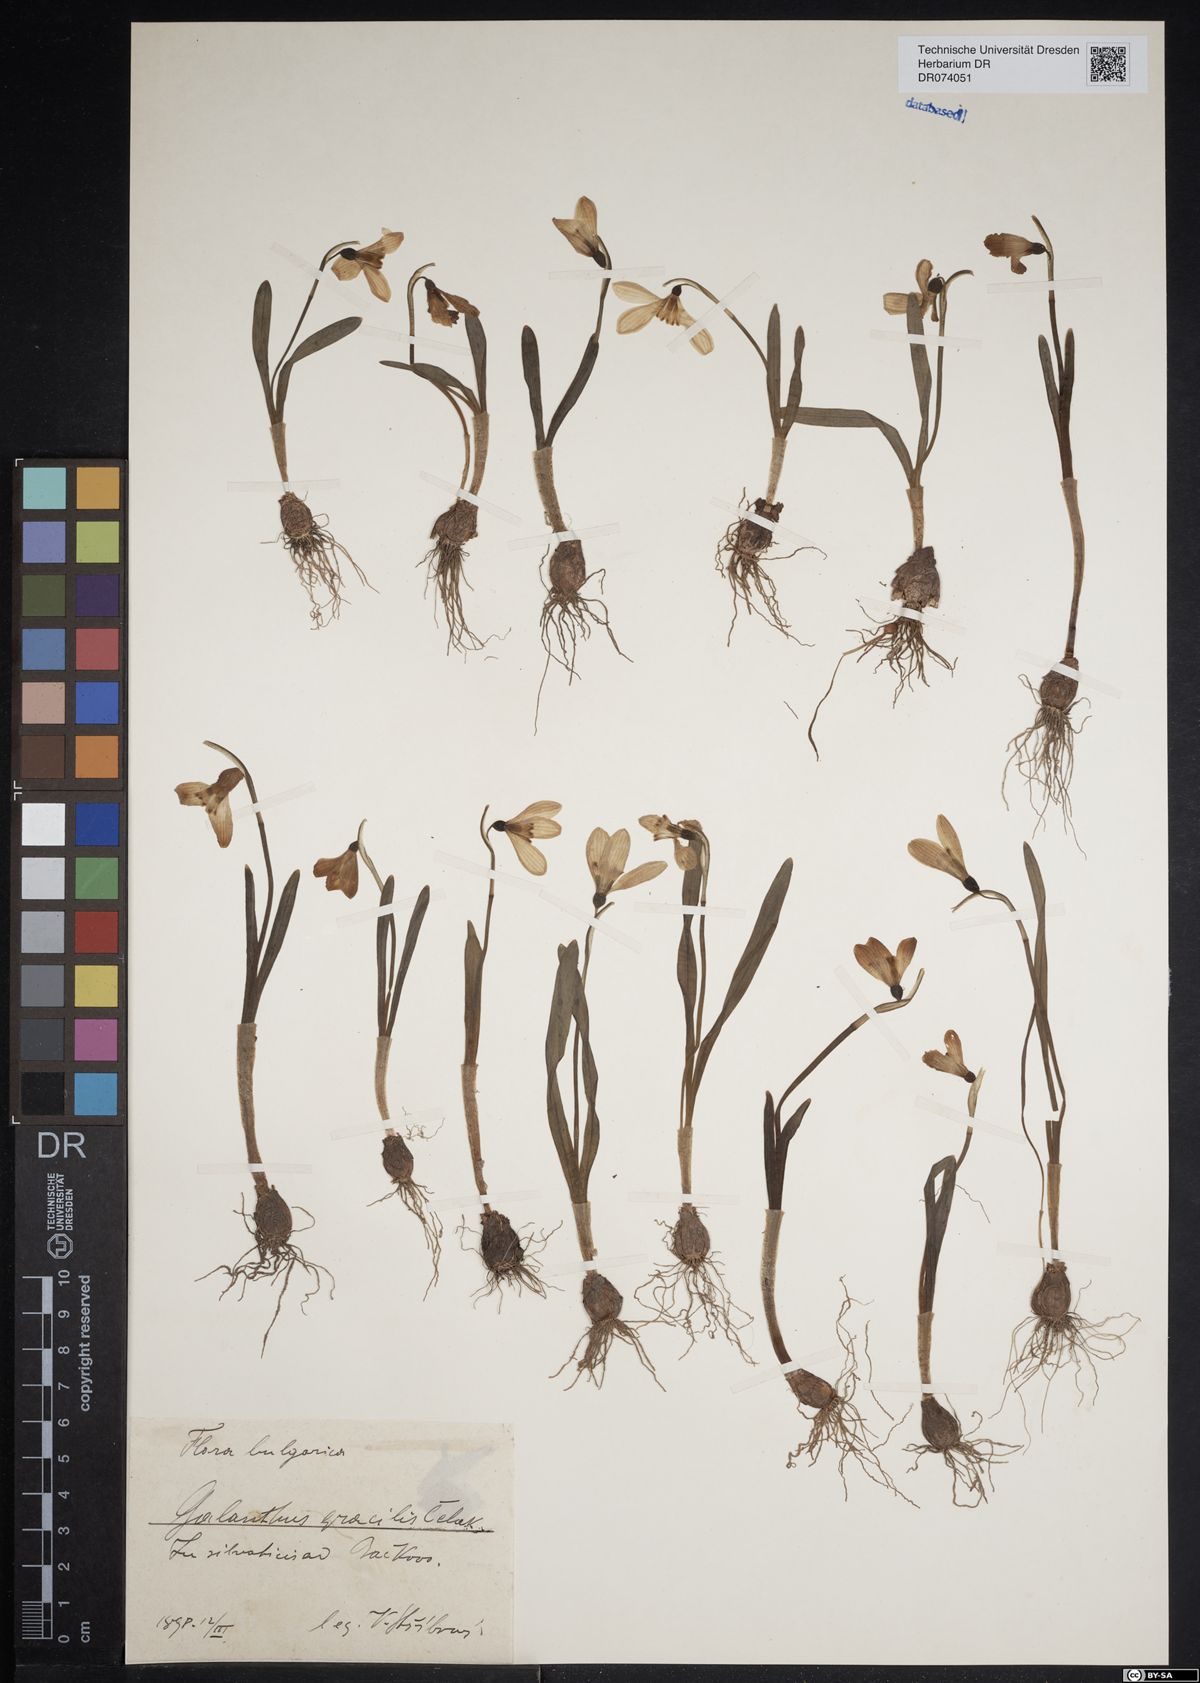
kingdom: Plantae
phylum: Tracheophyta
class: Liliopsida
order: Asparagales
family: Amaryllidaceae
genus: Galanthus
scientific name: Galanthus gracilis
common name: Snowdrop
